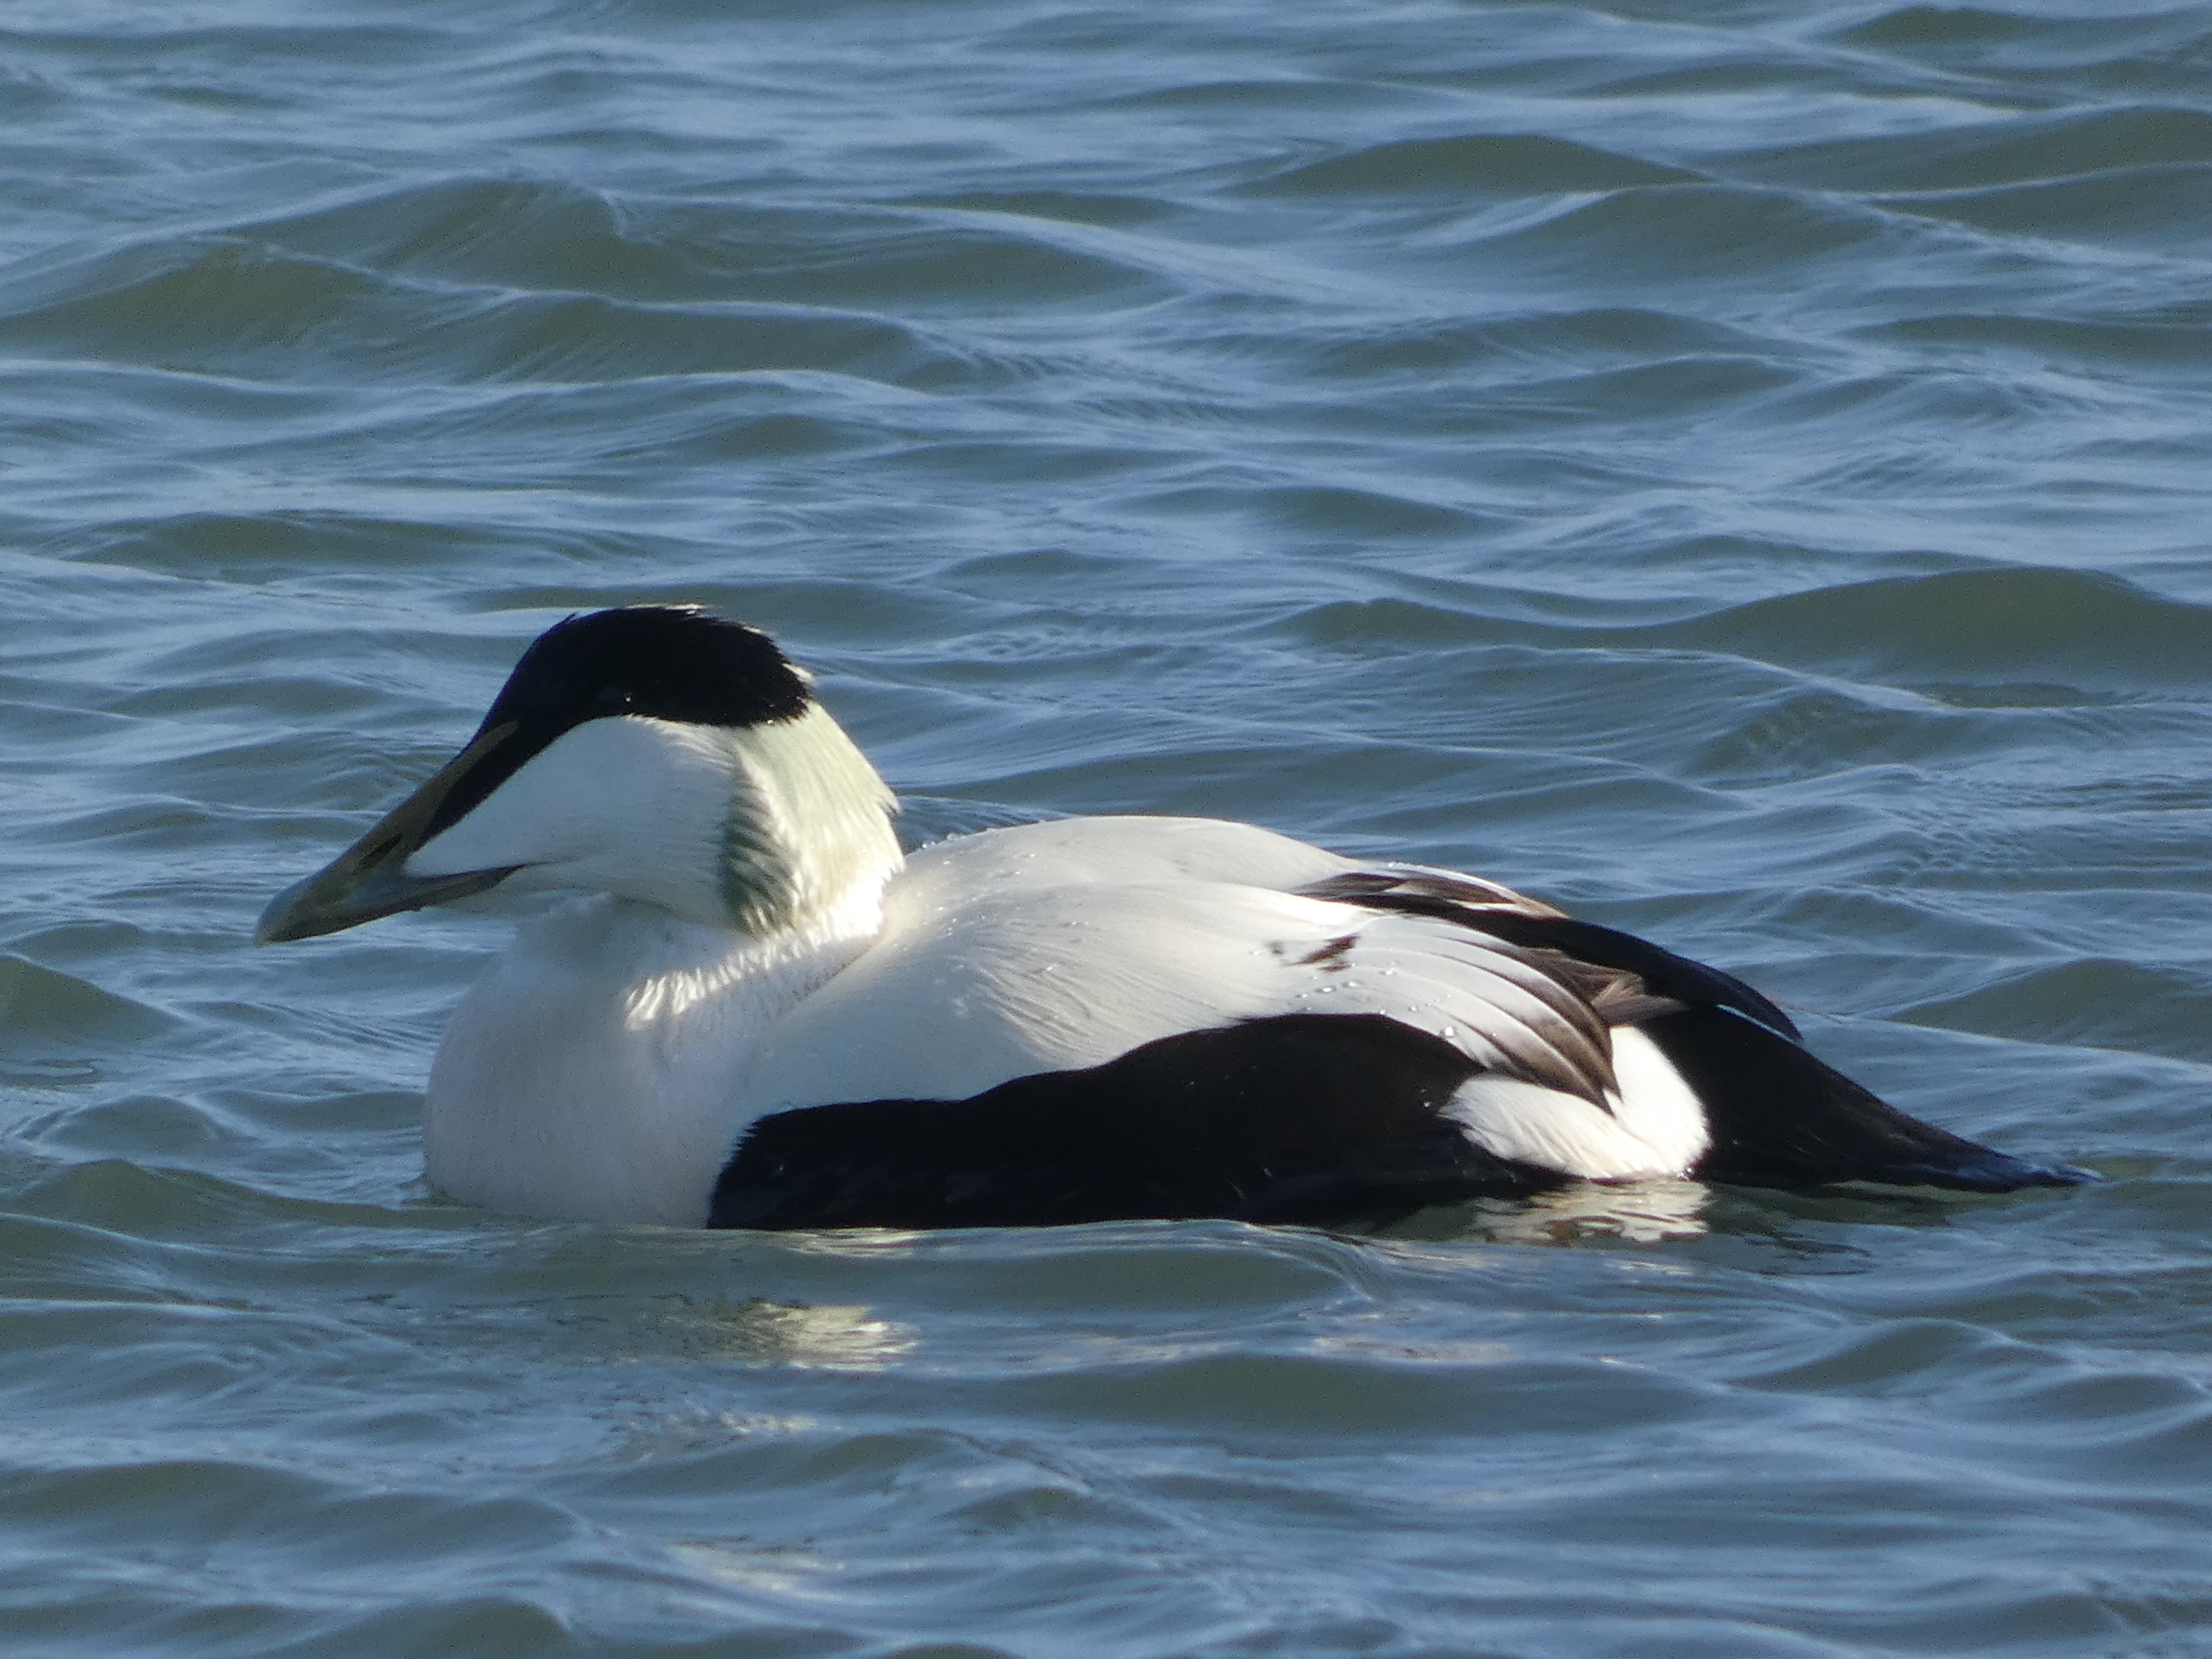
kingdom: Animalia
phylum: Chordata
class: Aves
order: Anseriformes
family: Anatidae
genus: Somateria
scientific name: Somateria mollissima
